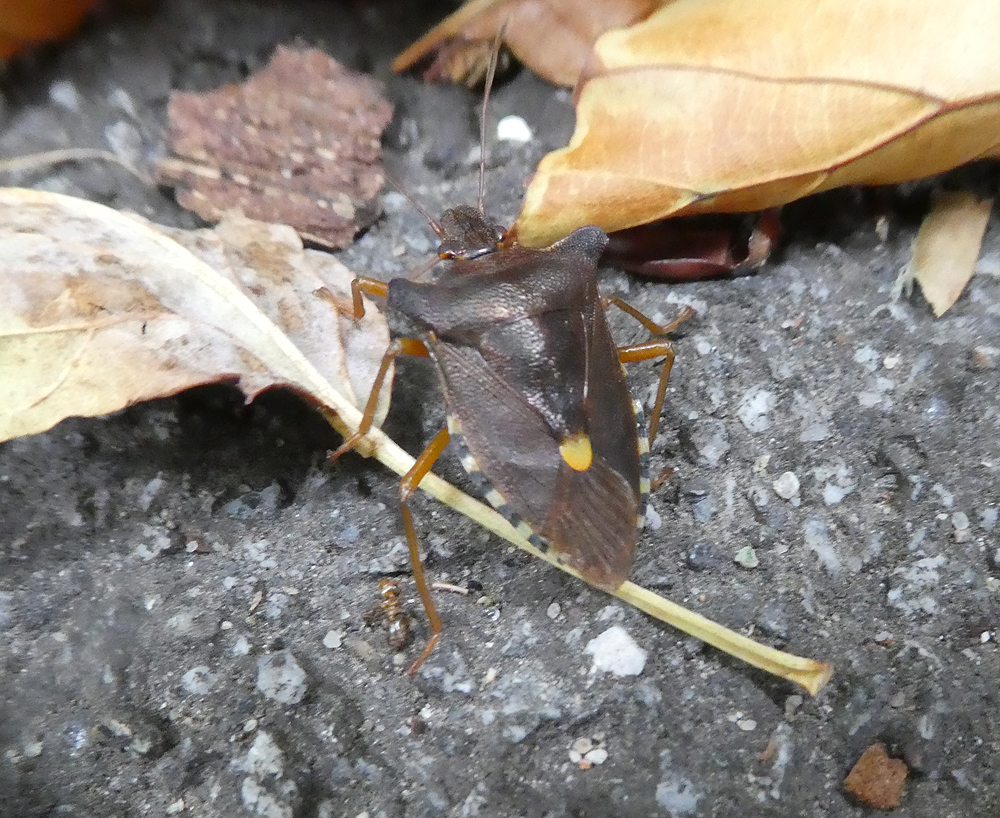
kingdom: Animalia
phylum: Arthropoda
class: Insecta
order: Hemiptera
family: Pentatomidae
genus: Pentatoma
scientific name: Pentatoma rufipes
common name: Forest bug
